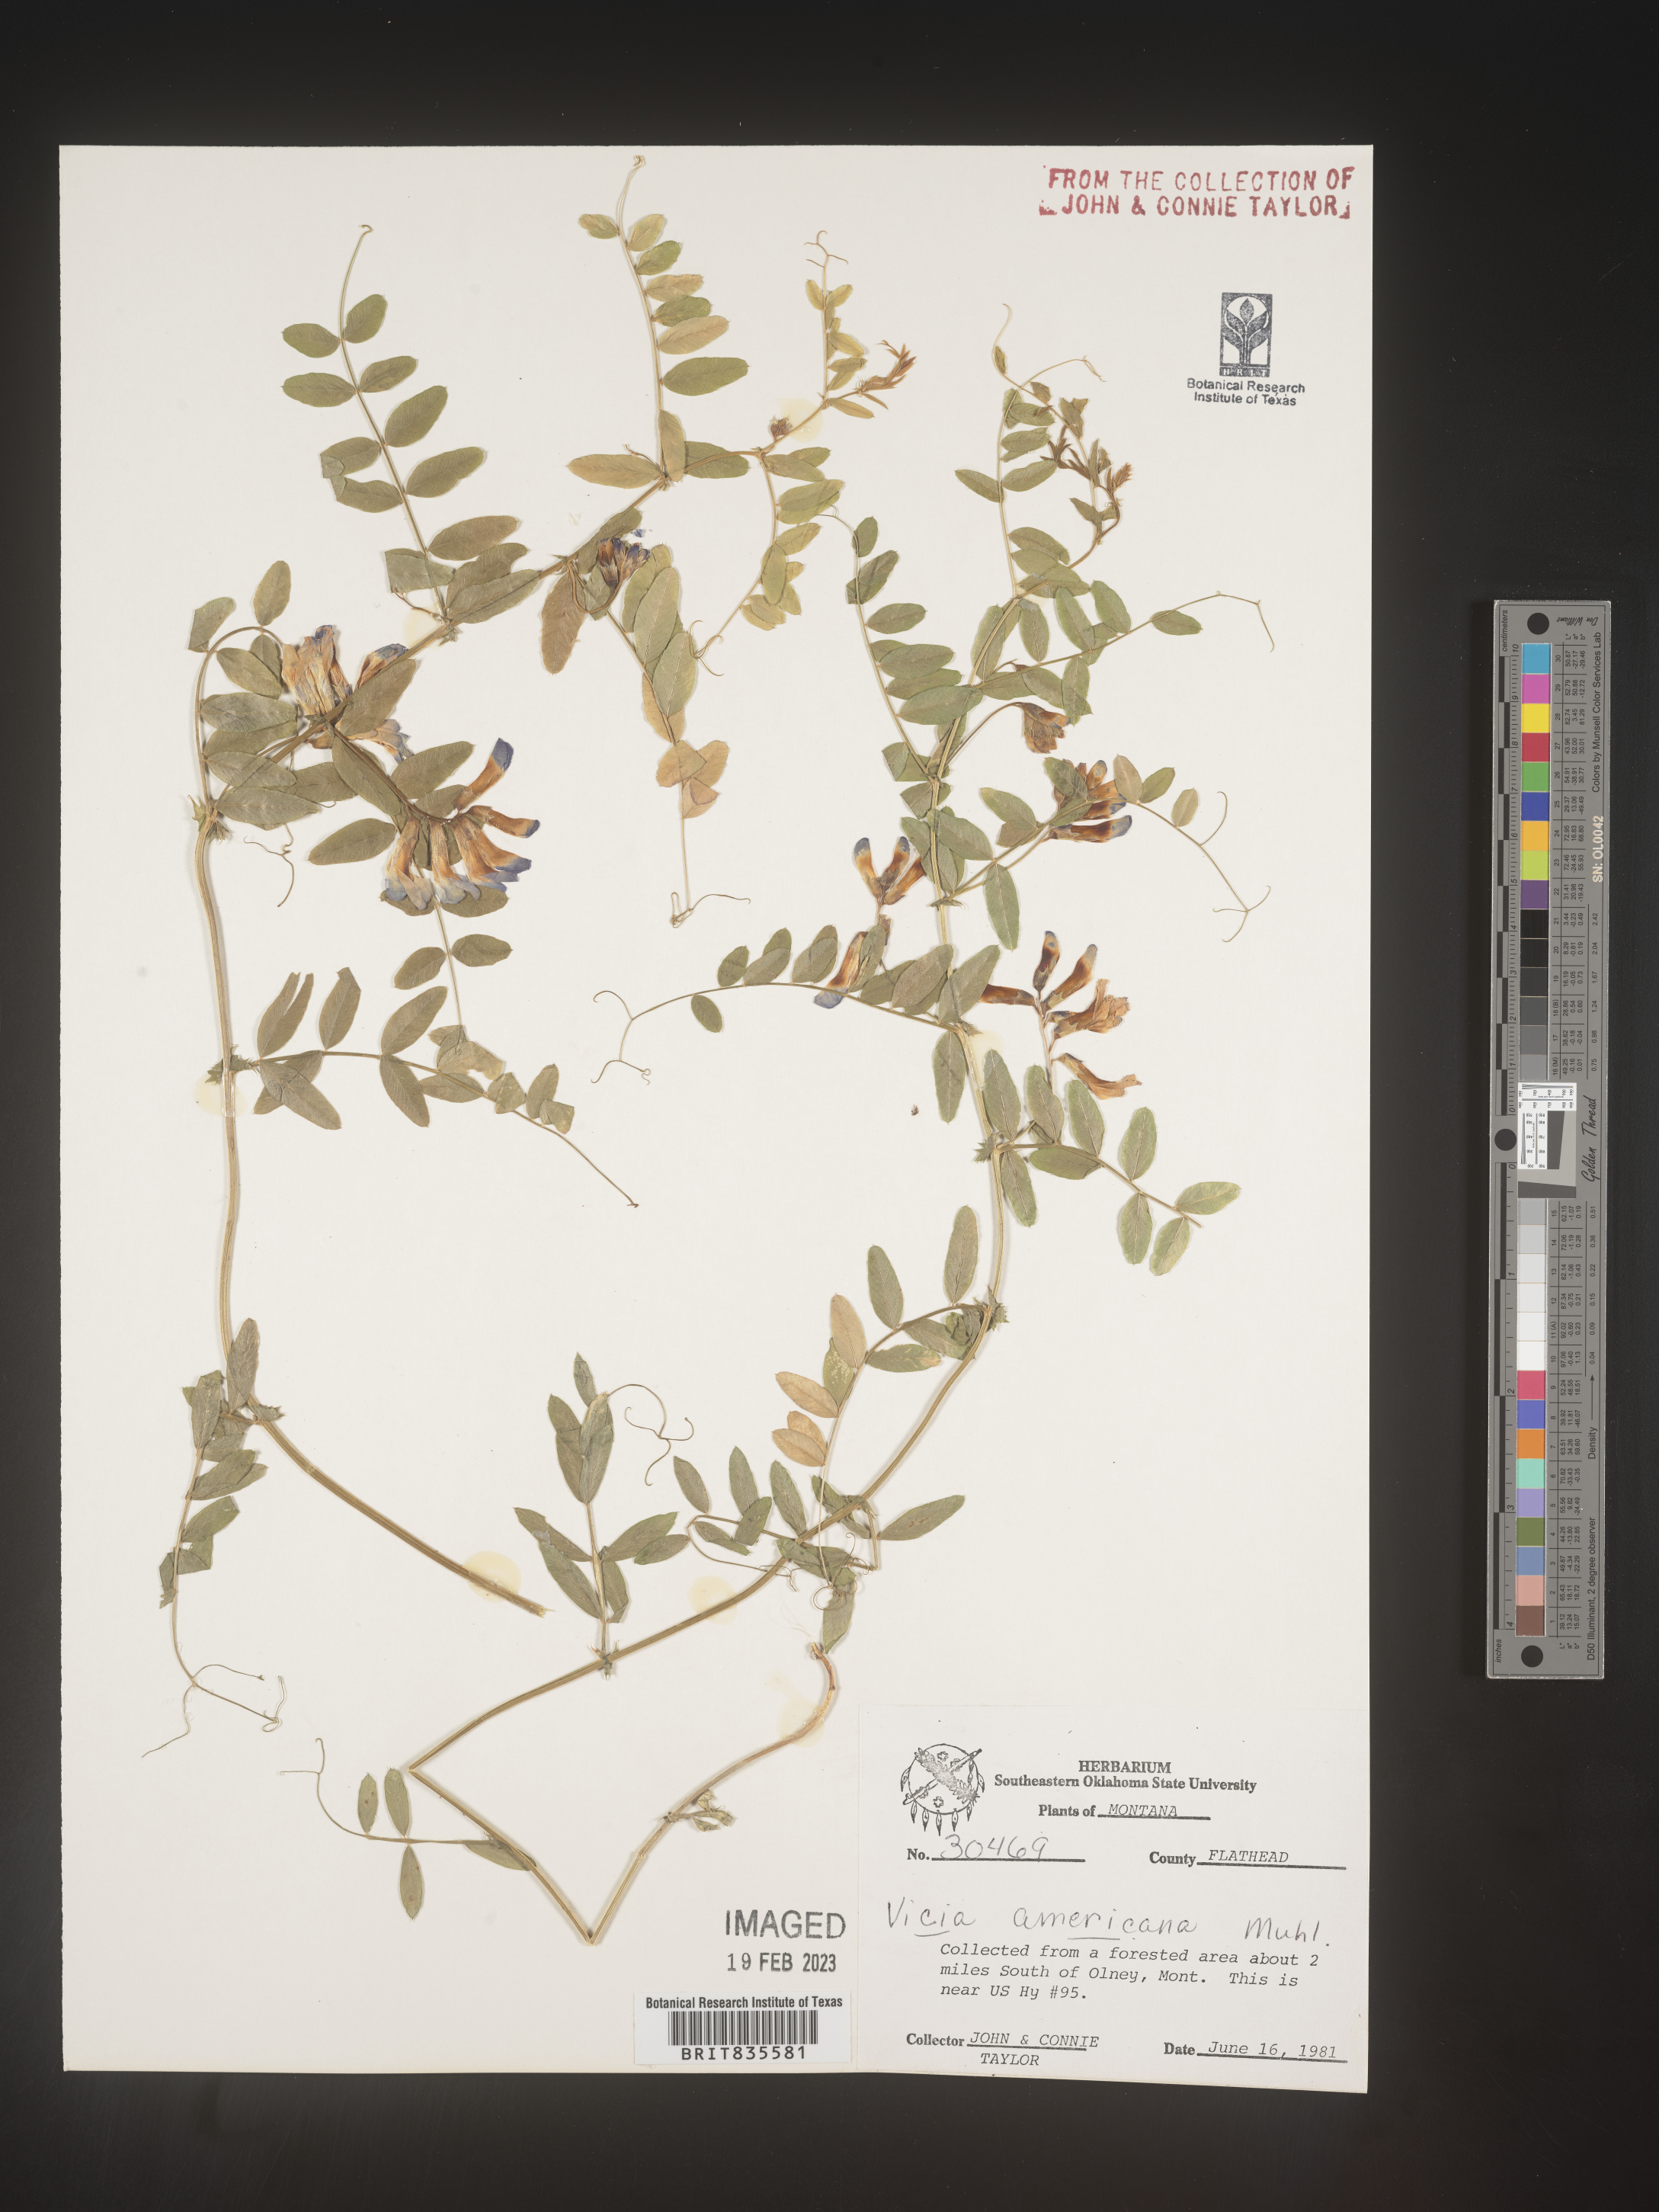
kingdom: Plantae
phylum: Tracheophyta
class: Magnoliopsida
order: Fabales
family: Fabaceae
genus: Vicia
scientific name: Vicia americana
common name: American vetch
